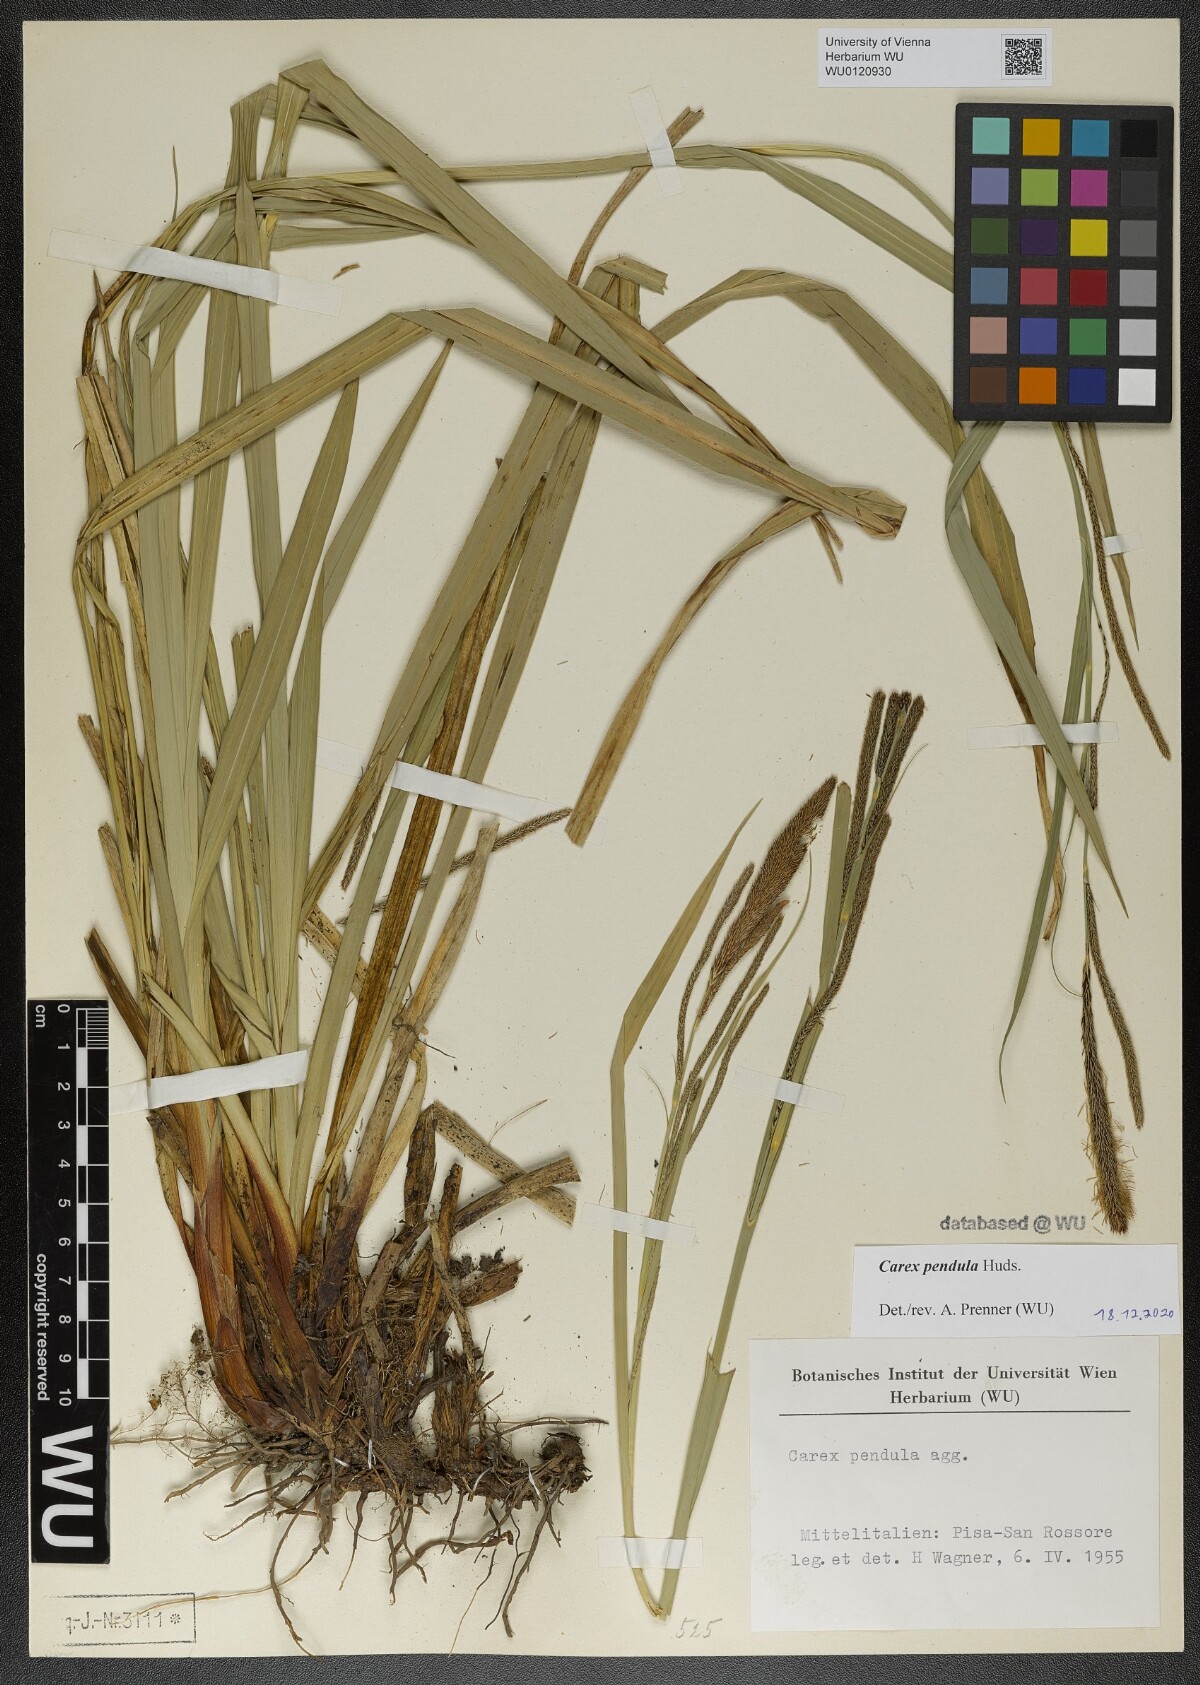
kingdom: Plantae
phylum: Tracheophyta
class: Liliopsida
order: Poales
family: Cyperaceae
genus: Carex
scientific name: Carex pendula
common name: Pendulous sedge
